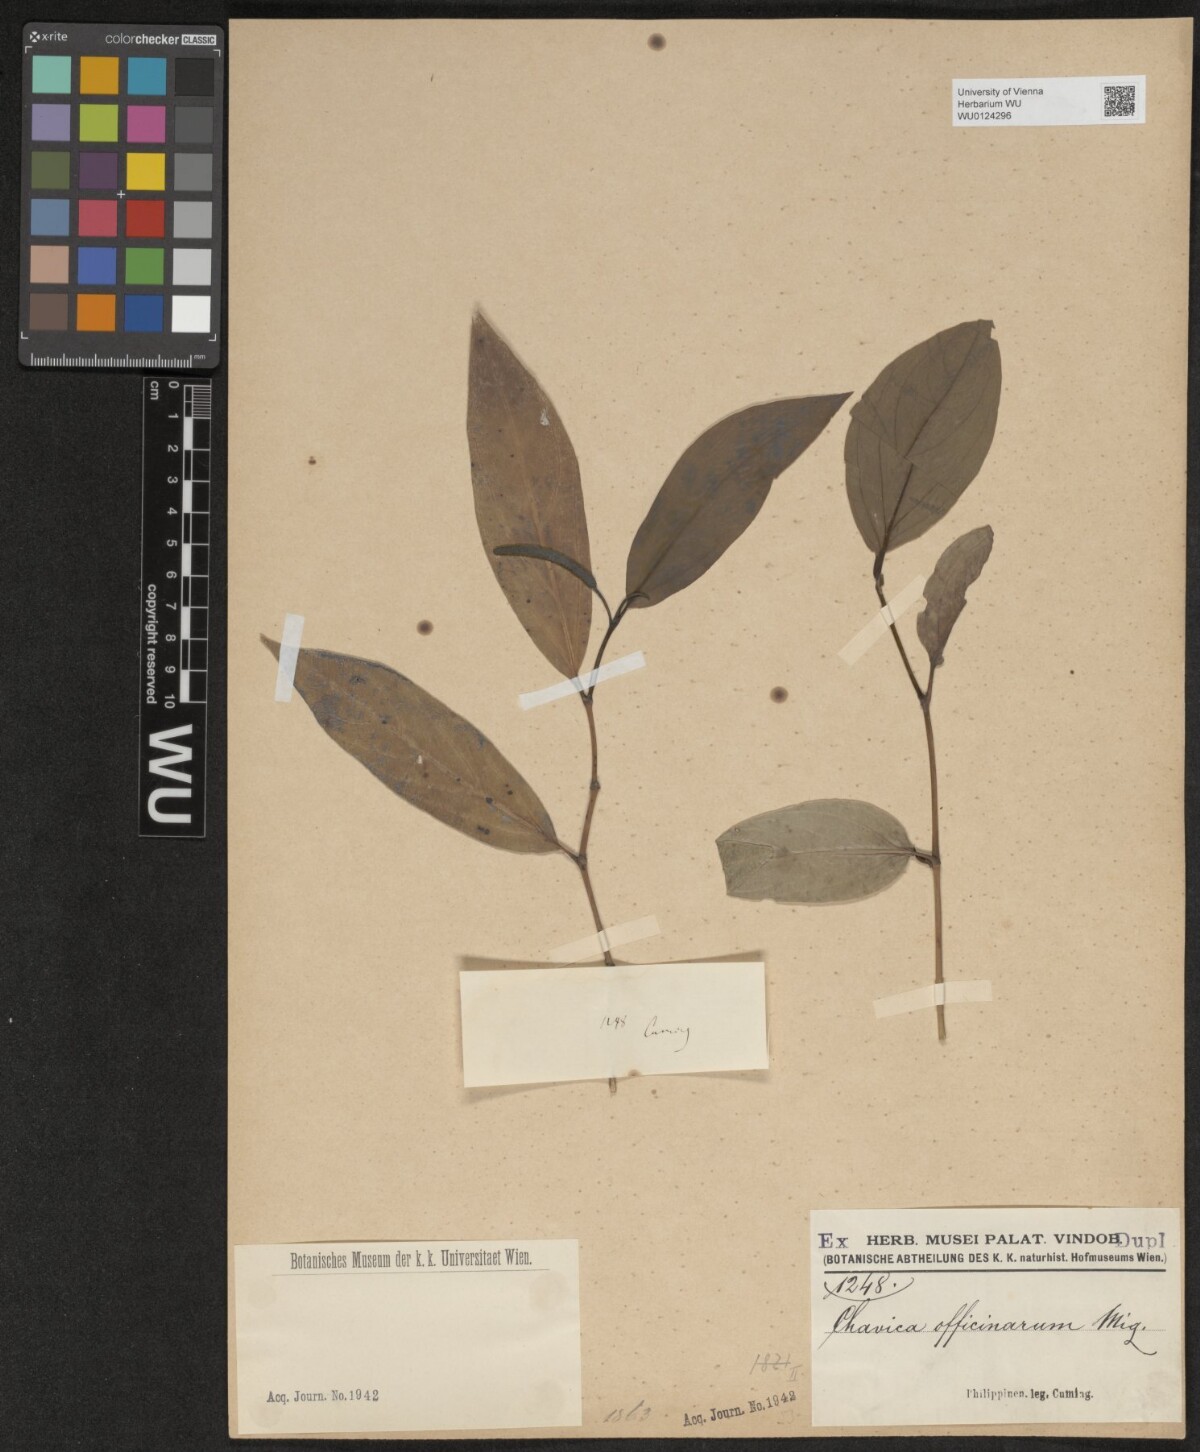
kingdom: Plantae
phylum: Tracheophyta
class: Magnoliopsida
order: Piperales
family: Piperaceae
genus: Piper
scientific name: Piper retrofractum
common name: Javanese long pepper
